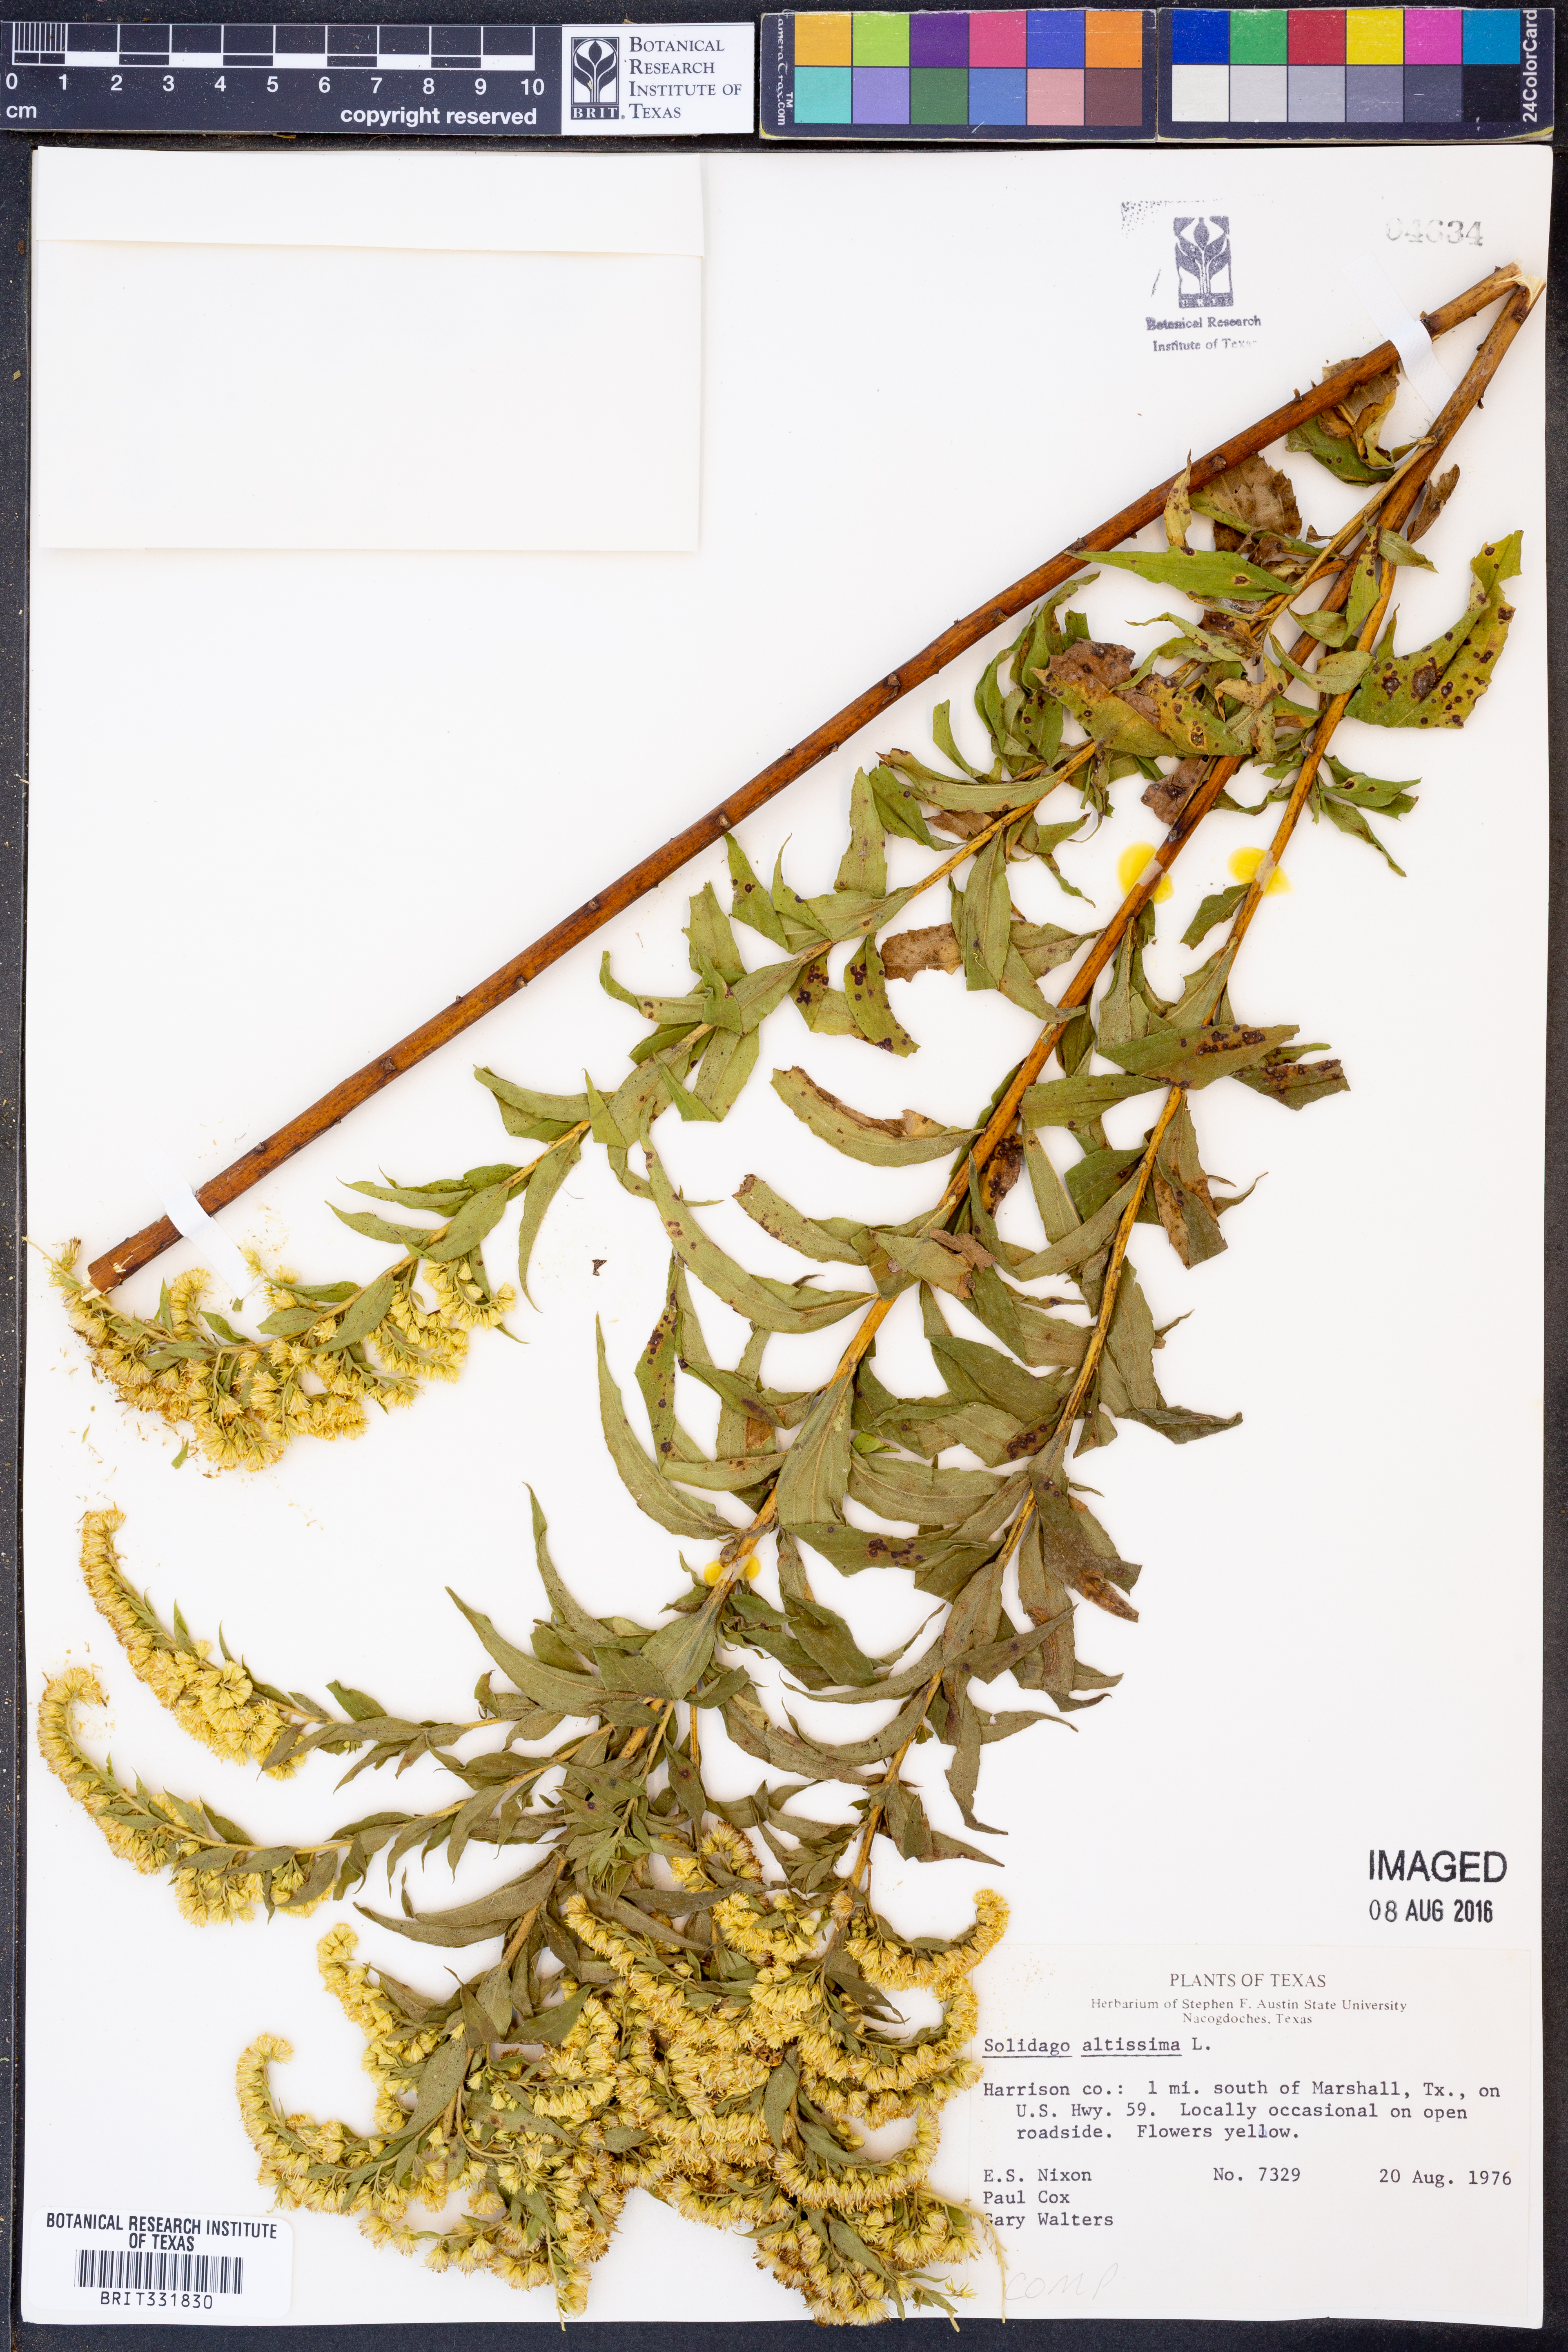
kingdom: Plantae
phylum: Tracheophyta
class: Magnoliopsida
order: Asterales
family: Asteraceae
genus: Solidago
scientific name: Solidago altissima
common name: Late goldenrod
